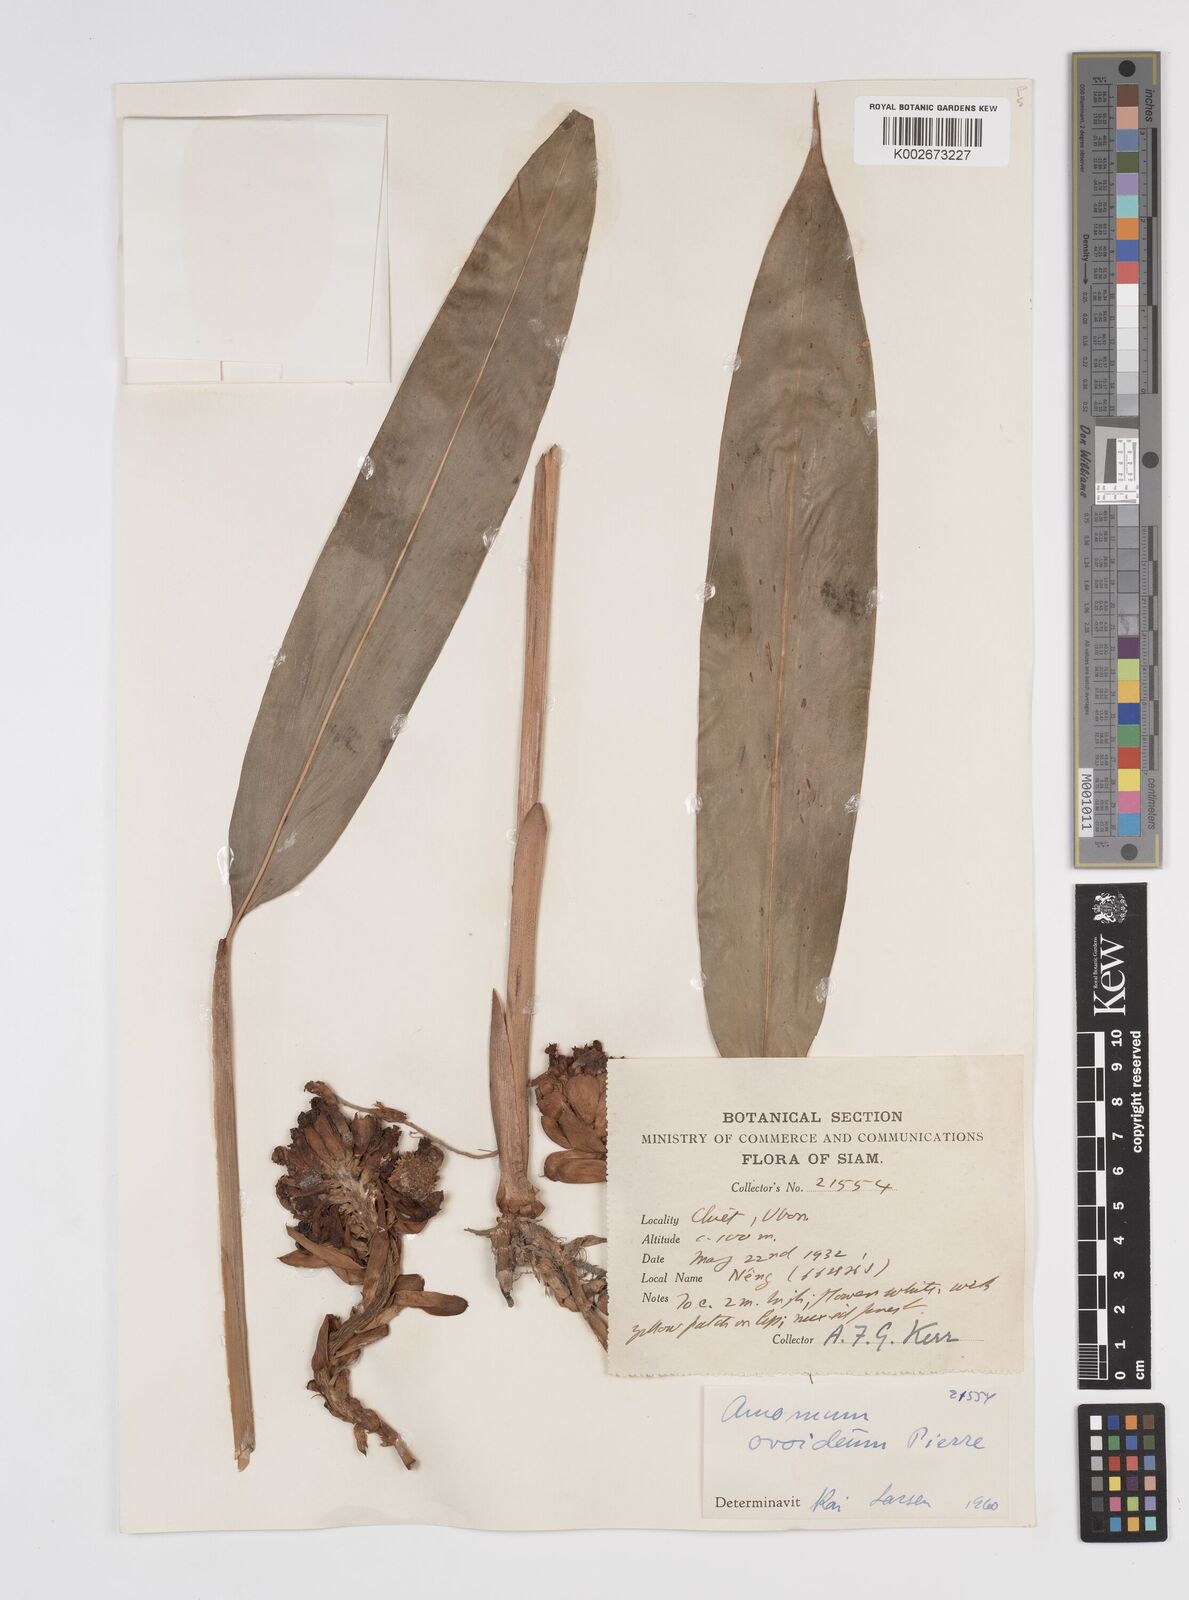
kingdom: Plantae
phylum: Tracheophyta
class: Liliopsida
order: Zingiberales
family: Zingiberaceae
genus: Wurfbainia
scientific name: Wurfbainia uliginosa
